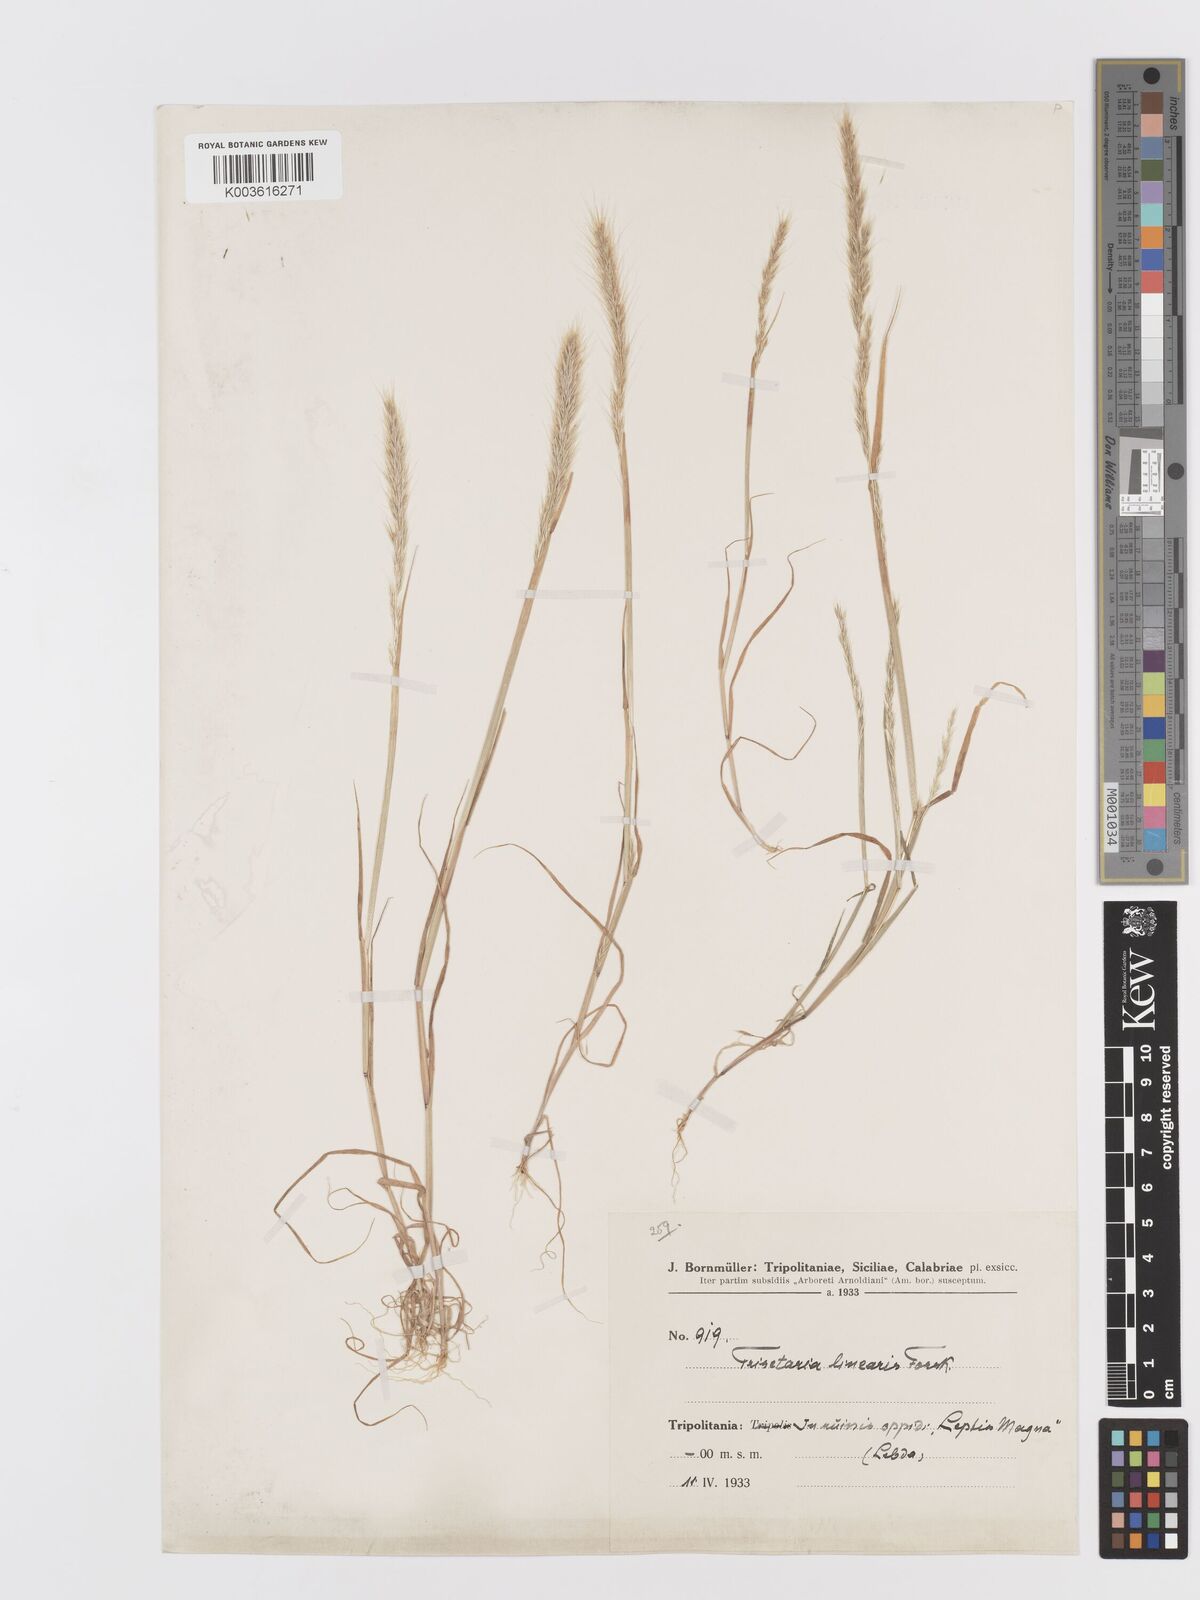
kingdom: Plantae
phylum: Tracheophyta
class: Liliopsida
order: Poales
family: Poaceae
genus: Trisetaria
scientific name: Trisetaria linearis
